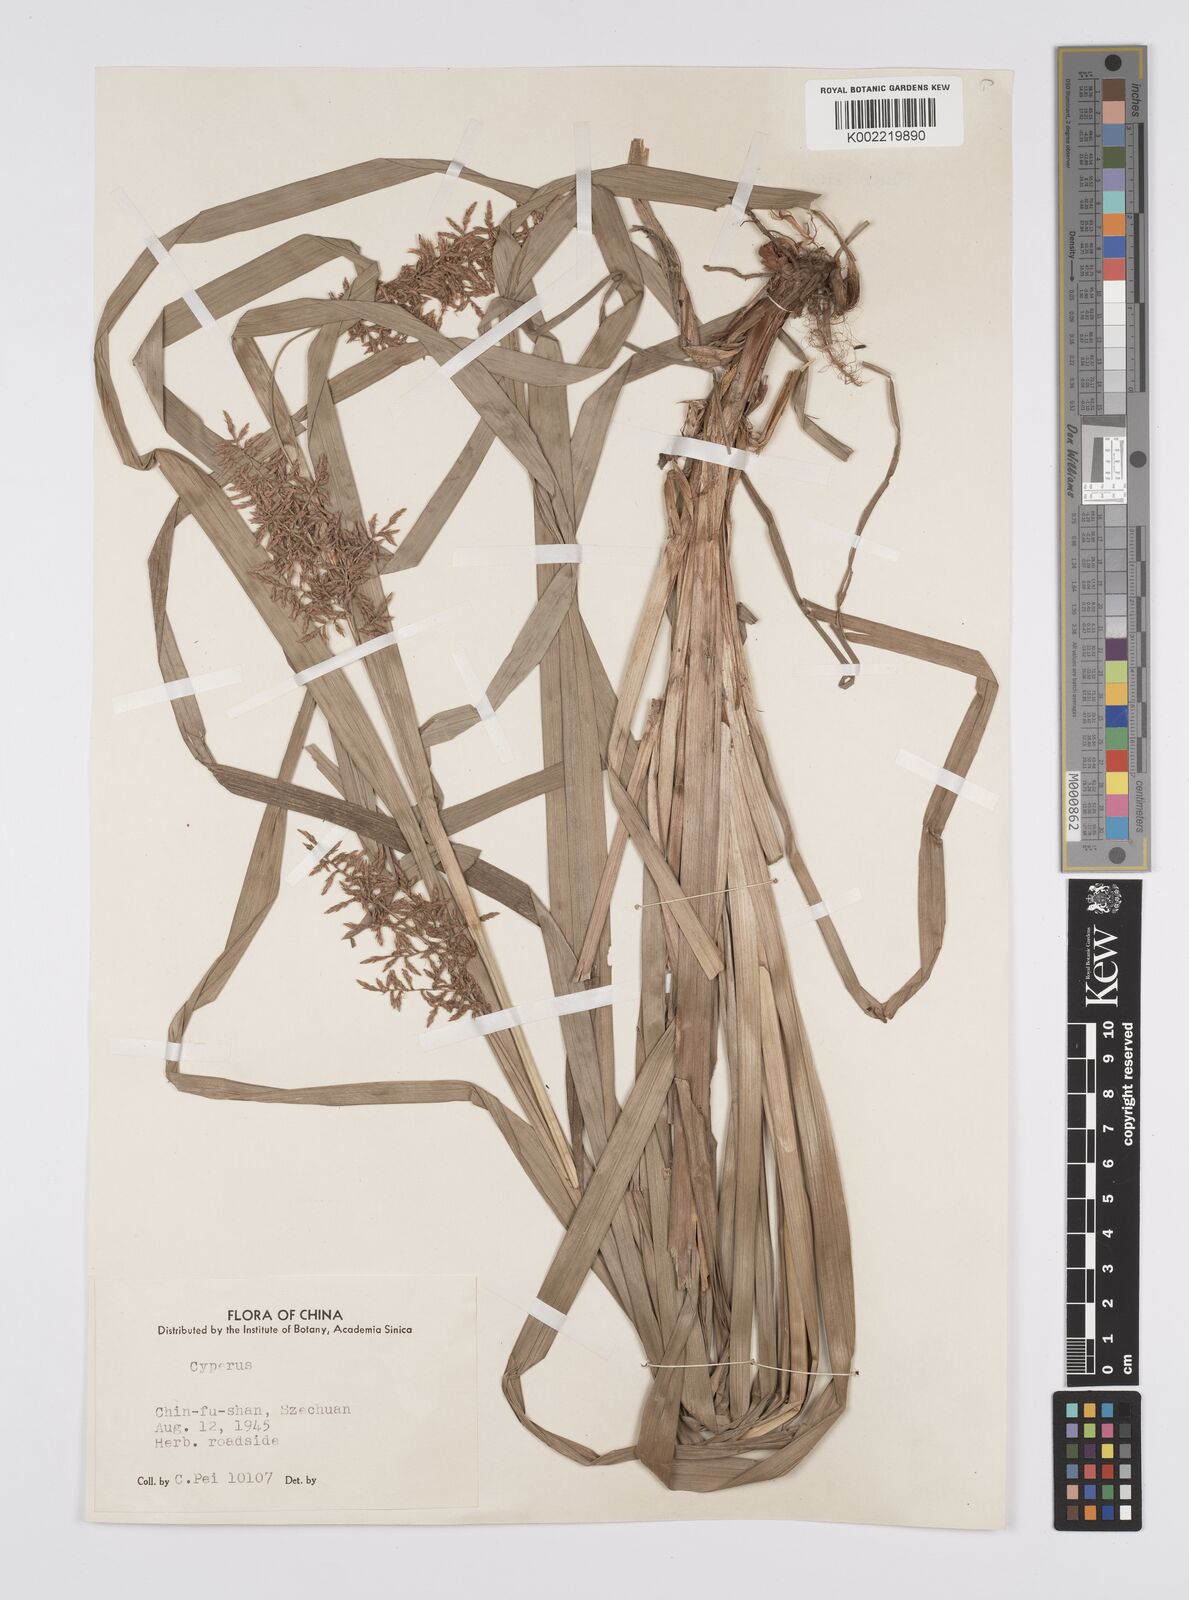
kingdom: Plantae
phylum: Tracheophyta
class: Liliopsida
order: Poales
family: Cyperaceae
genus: Carex
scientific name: Carex cruciata
